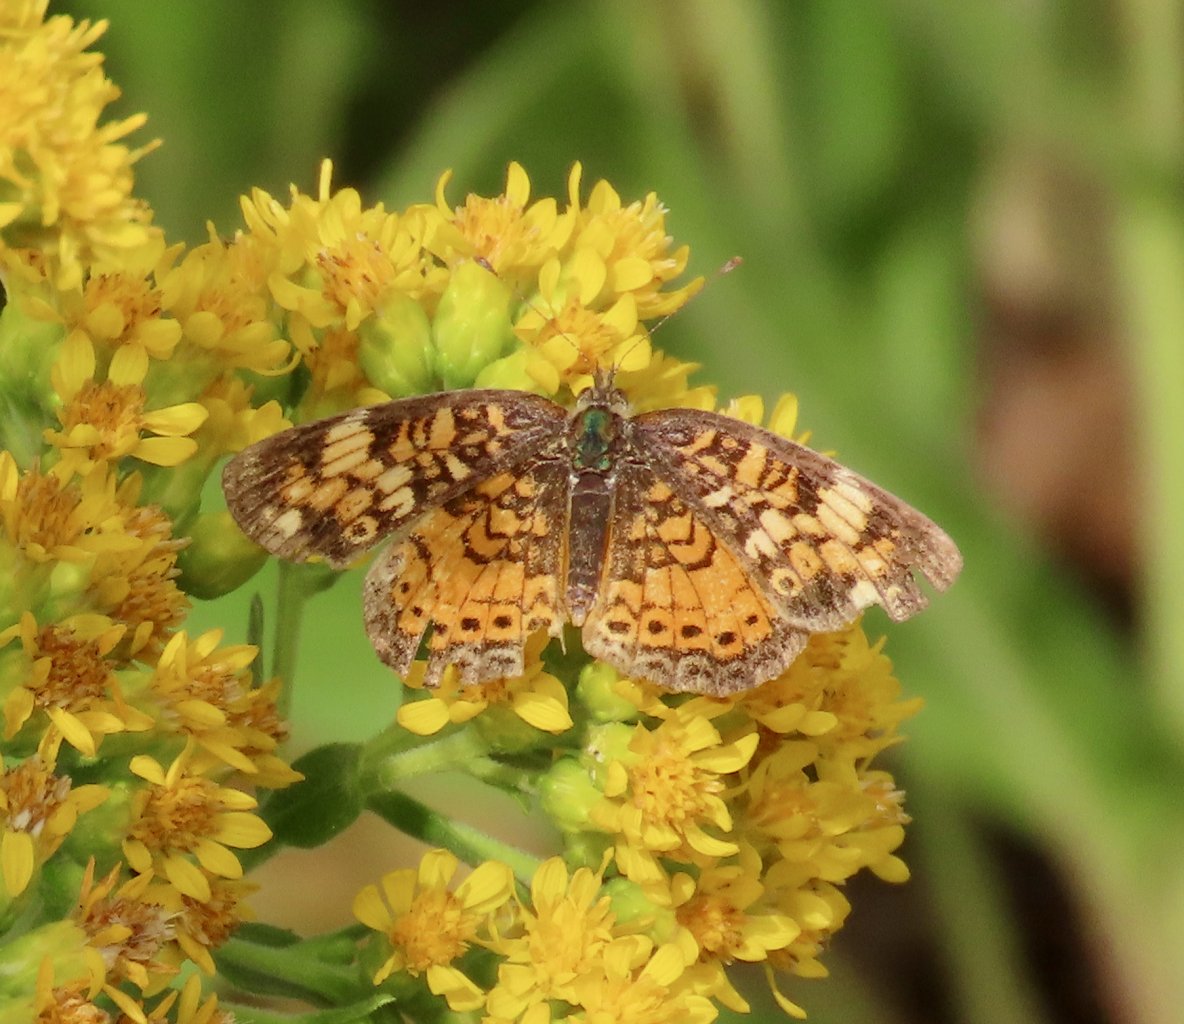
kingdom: Animalia
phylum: Arthropoda
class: Insecta
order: Lepidoptera
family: Nymphalidae
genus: Phyciodes
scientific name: Phyciodes tharos
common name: Pearl Crescent
